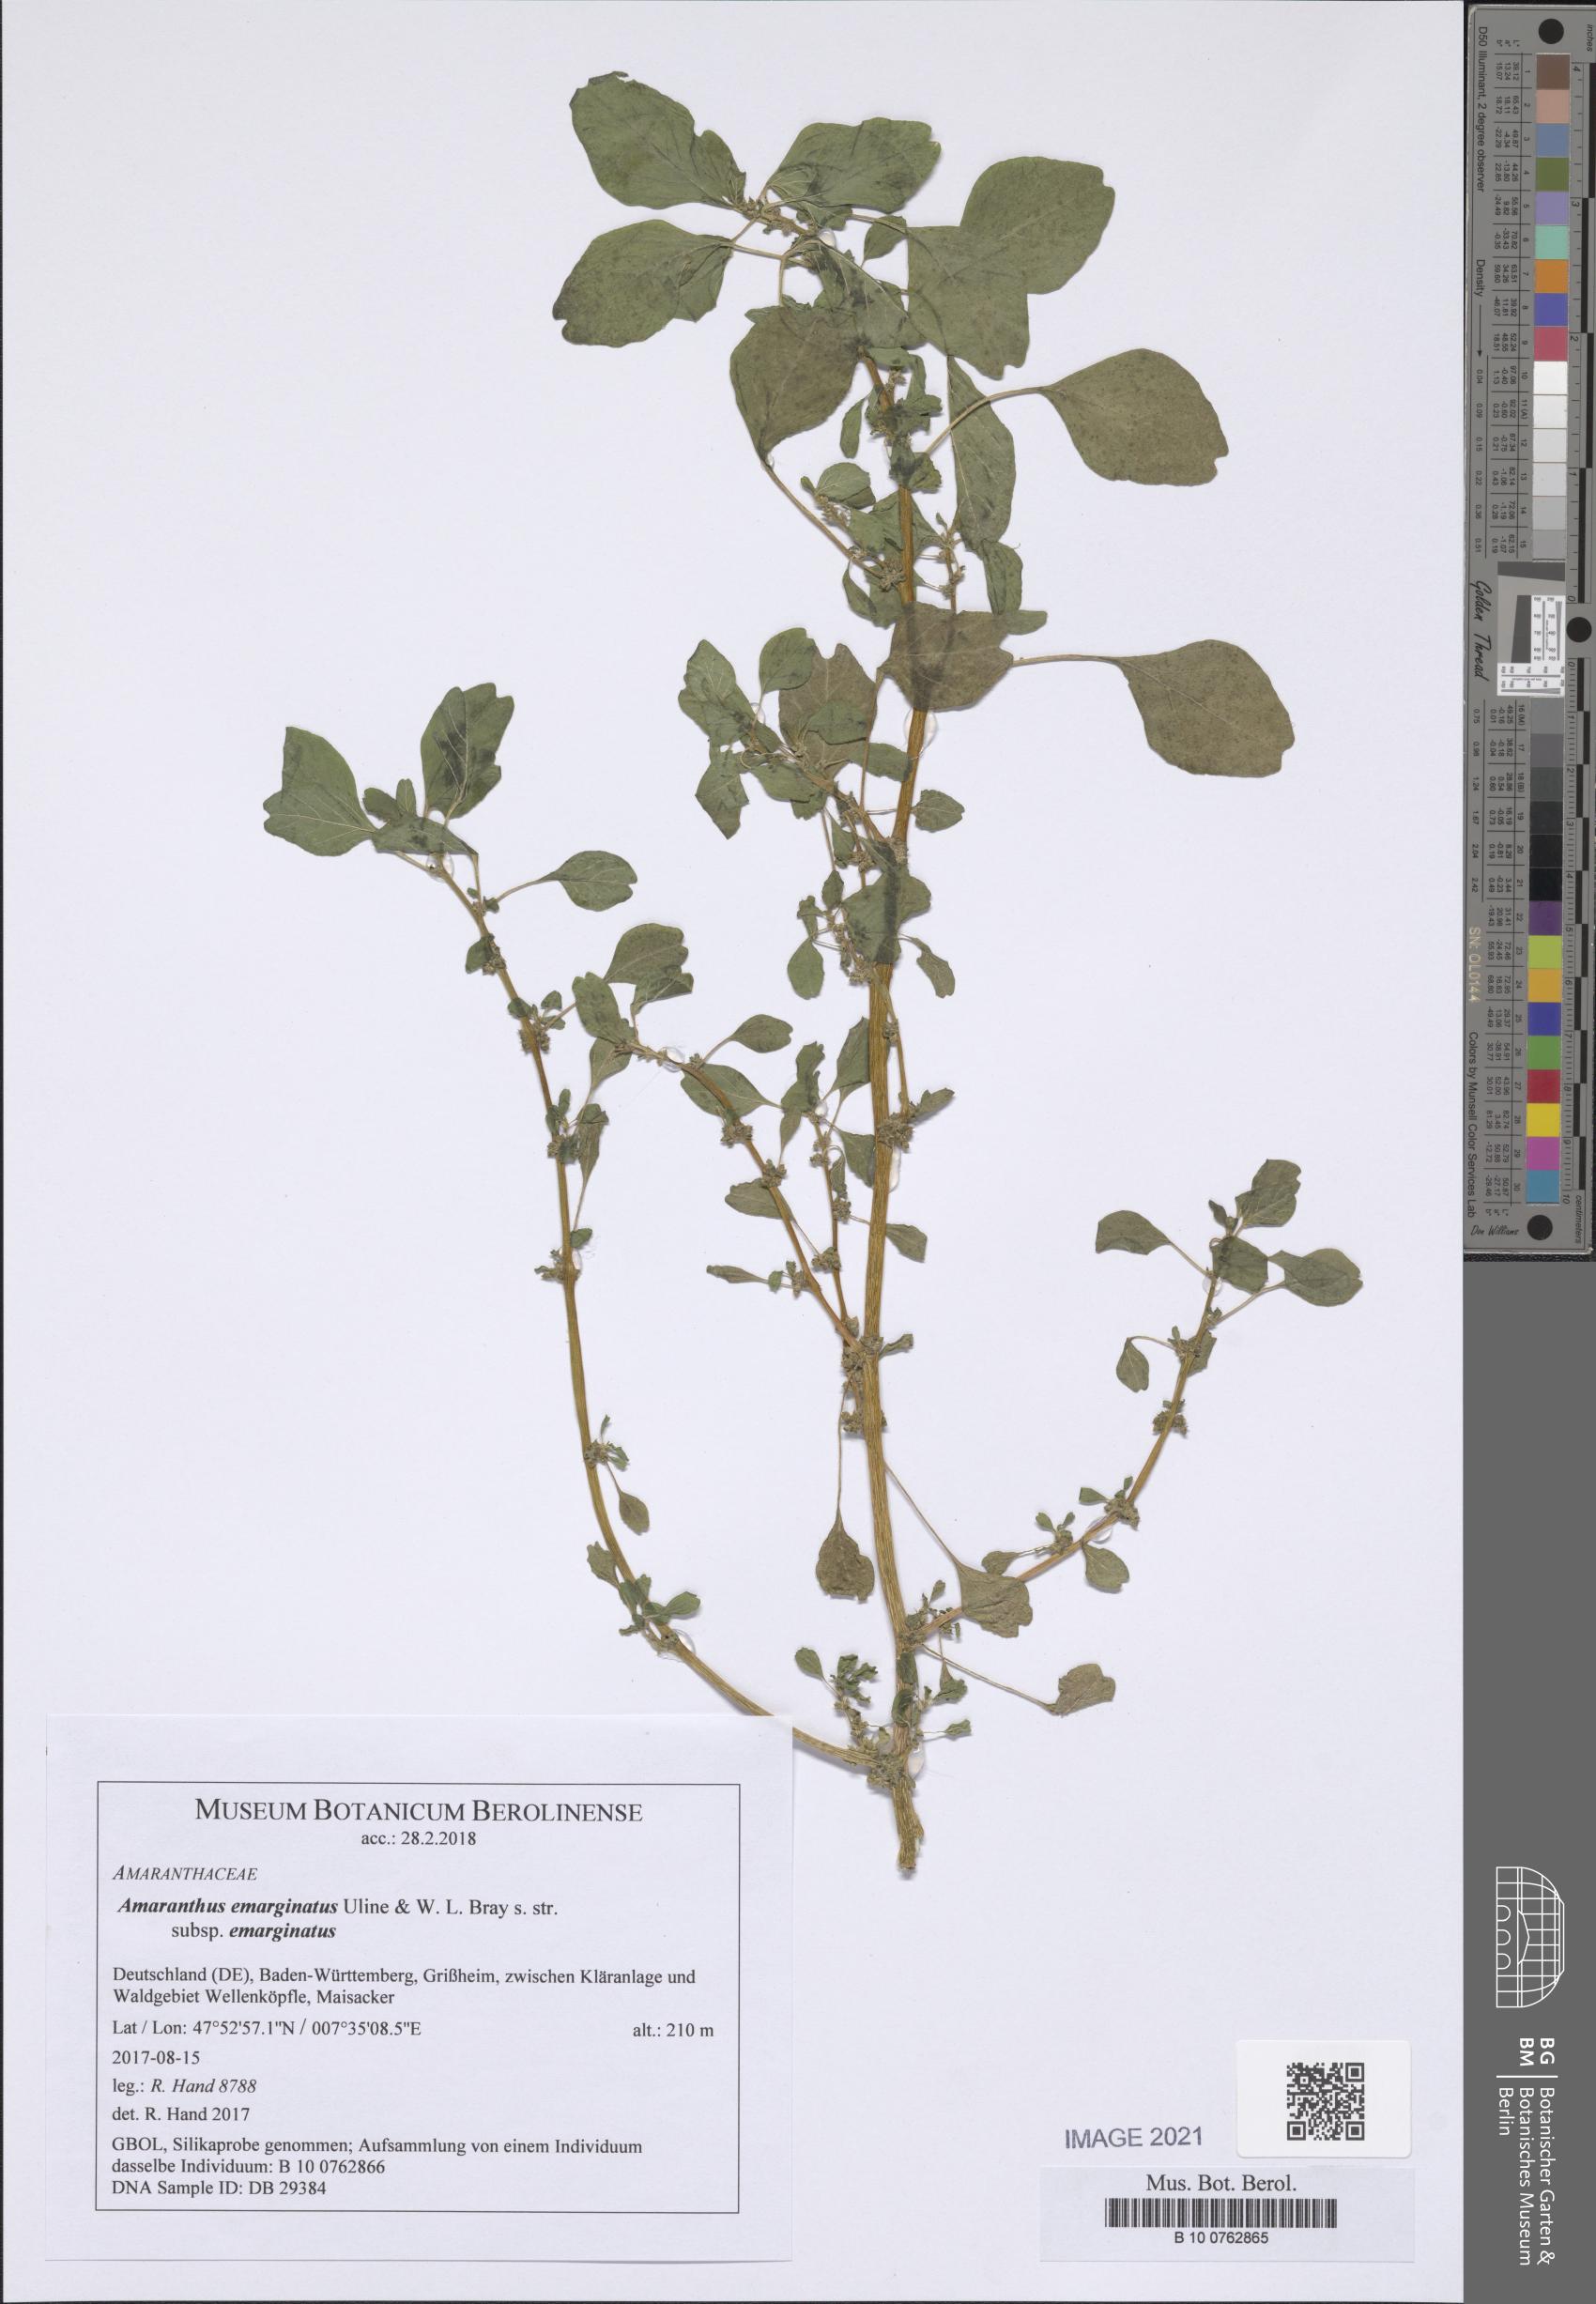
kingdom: Plantae
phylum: Tracheophyta
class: Magnoliopsida
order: Caryophyllales
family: Amaranthaceae
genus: Amaranthus
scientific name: Amaranthus emarginatus
